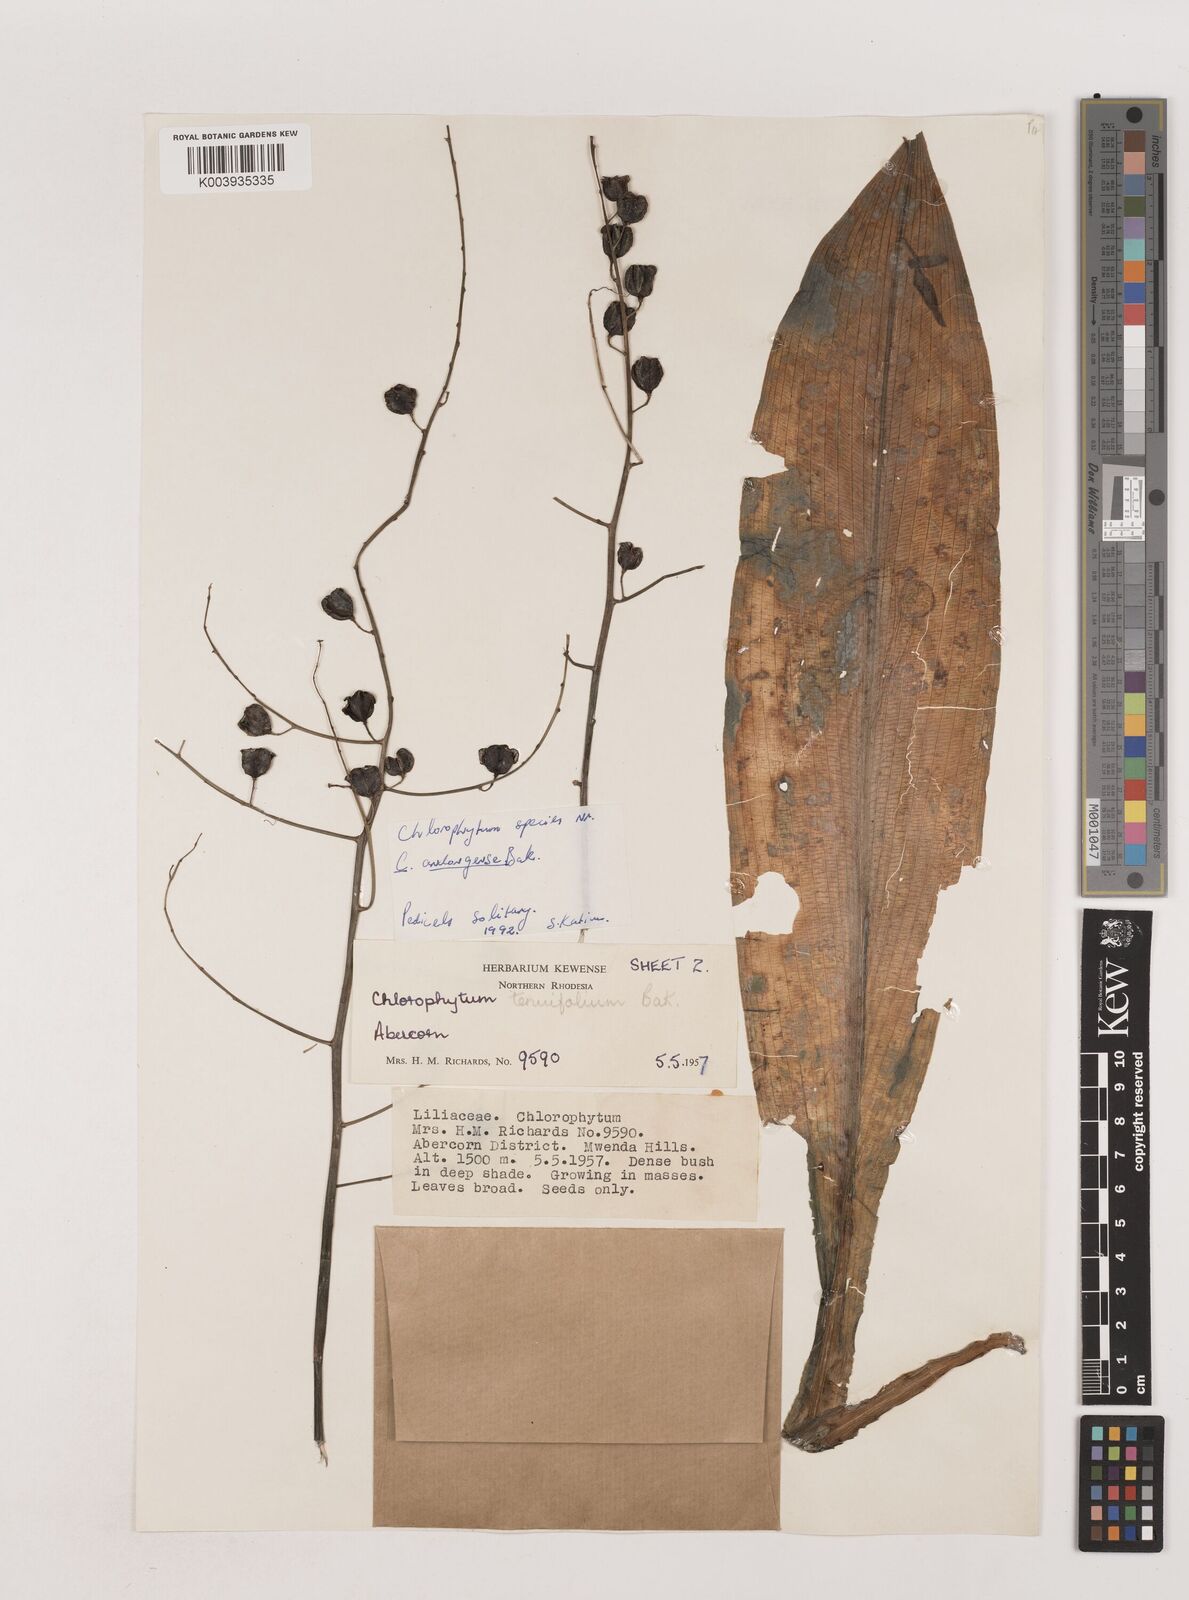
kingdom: Plantae
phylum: Tracheophyta
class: Liliopsida
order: Asparagales
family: Asparagaceae
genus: Chlorophytum
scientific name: Chlorophytum andongense
